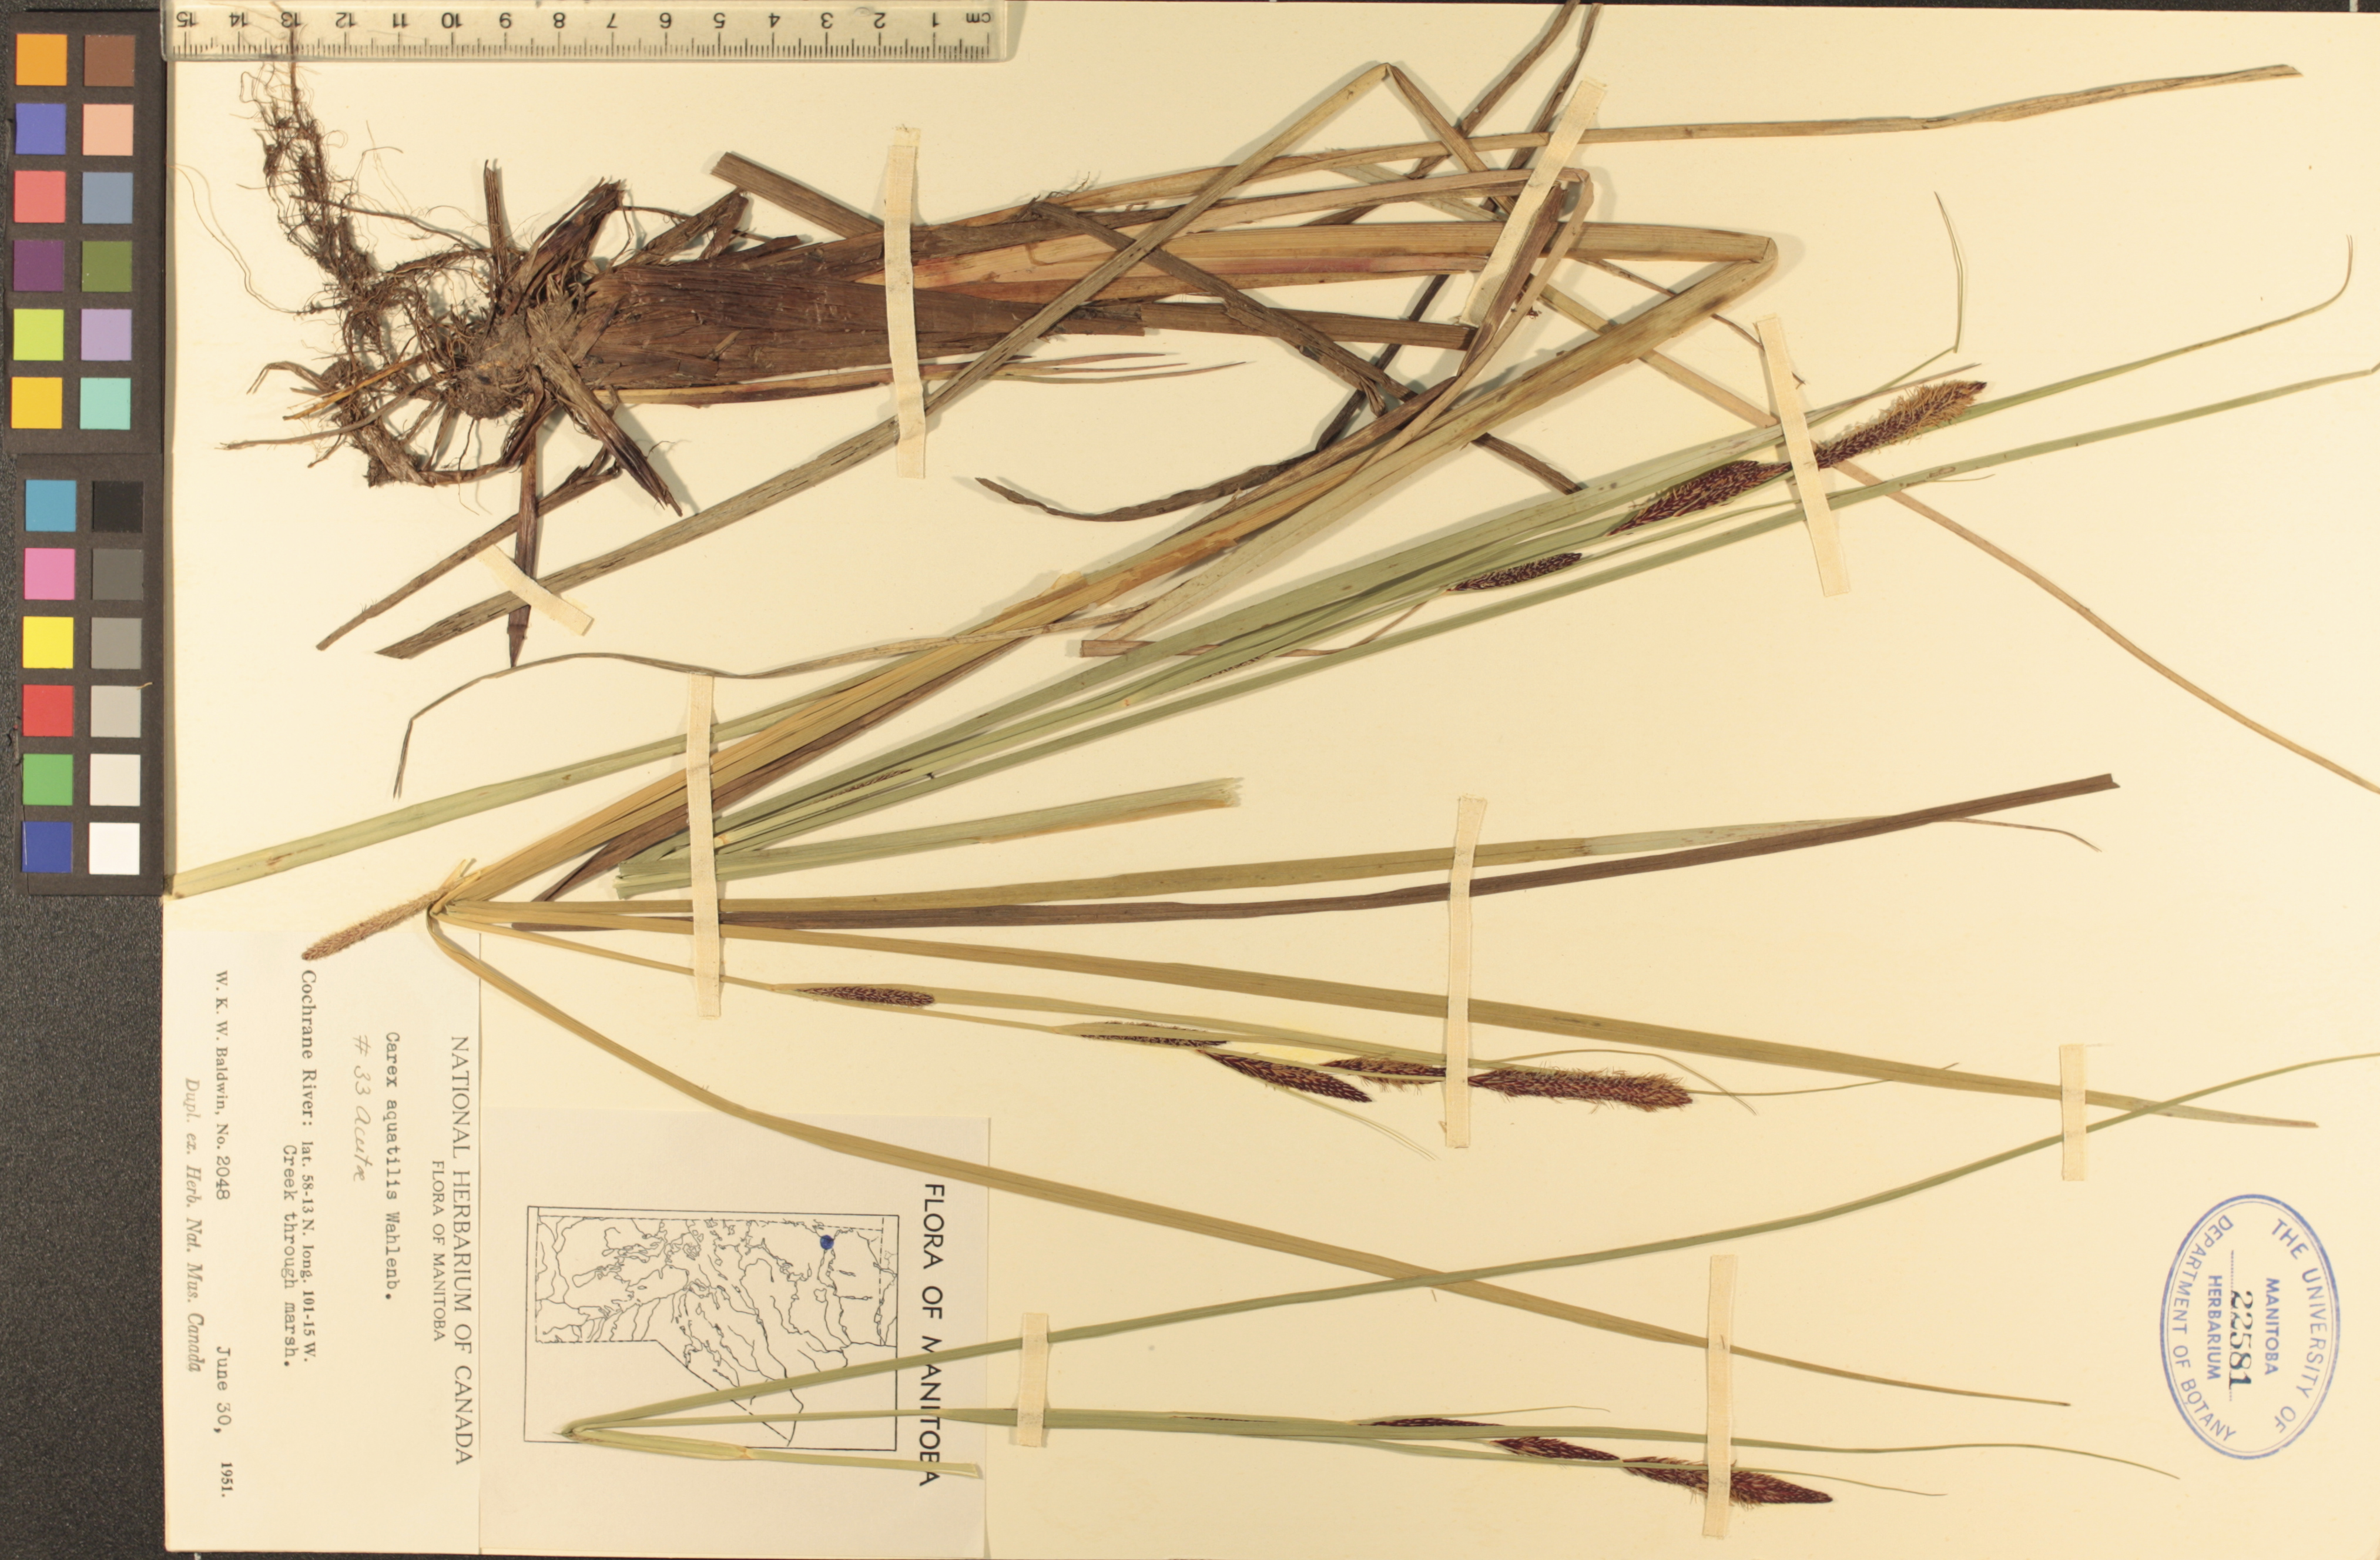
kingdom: Plantae
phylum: Tracheophyta
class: Liliopsida
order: Poales
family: Cyperaceae
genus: Carex
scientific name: Carex aquatilis
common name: Water sedge
